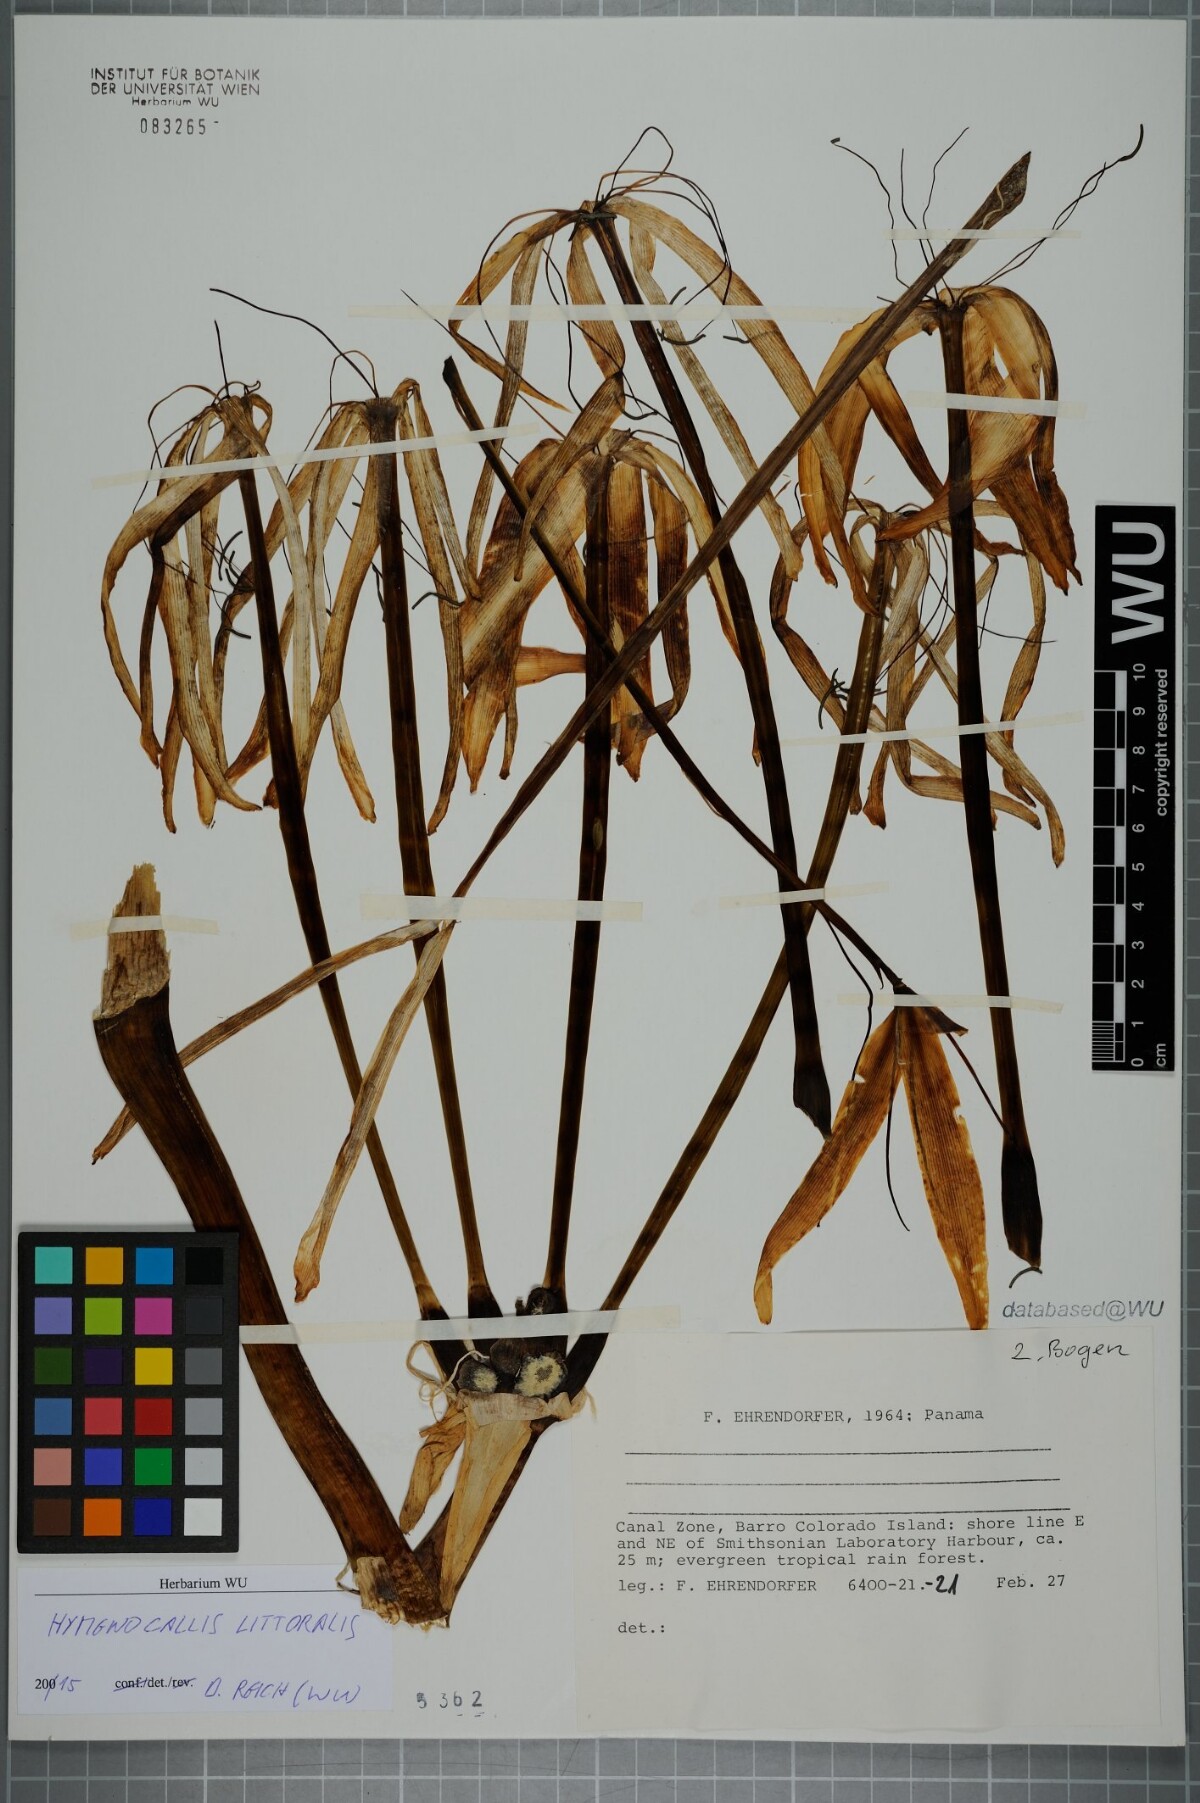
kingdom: Plantae
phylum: Tracheophyta
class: Liliopsida
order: Asparagales
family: Amaryllidaceae
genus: Hymenocallis
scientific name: Hymenocallis littoralis
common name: Beach spiderlily
